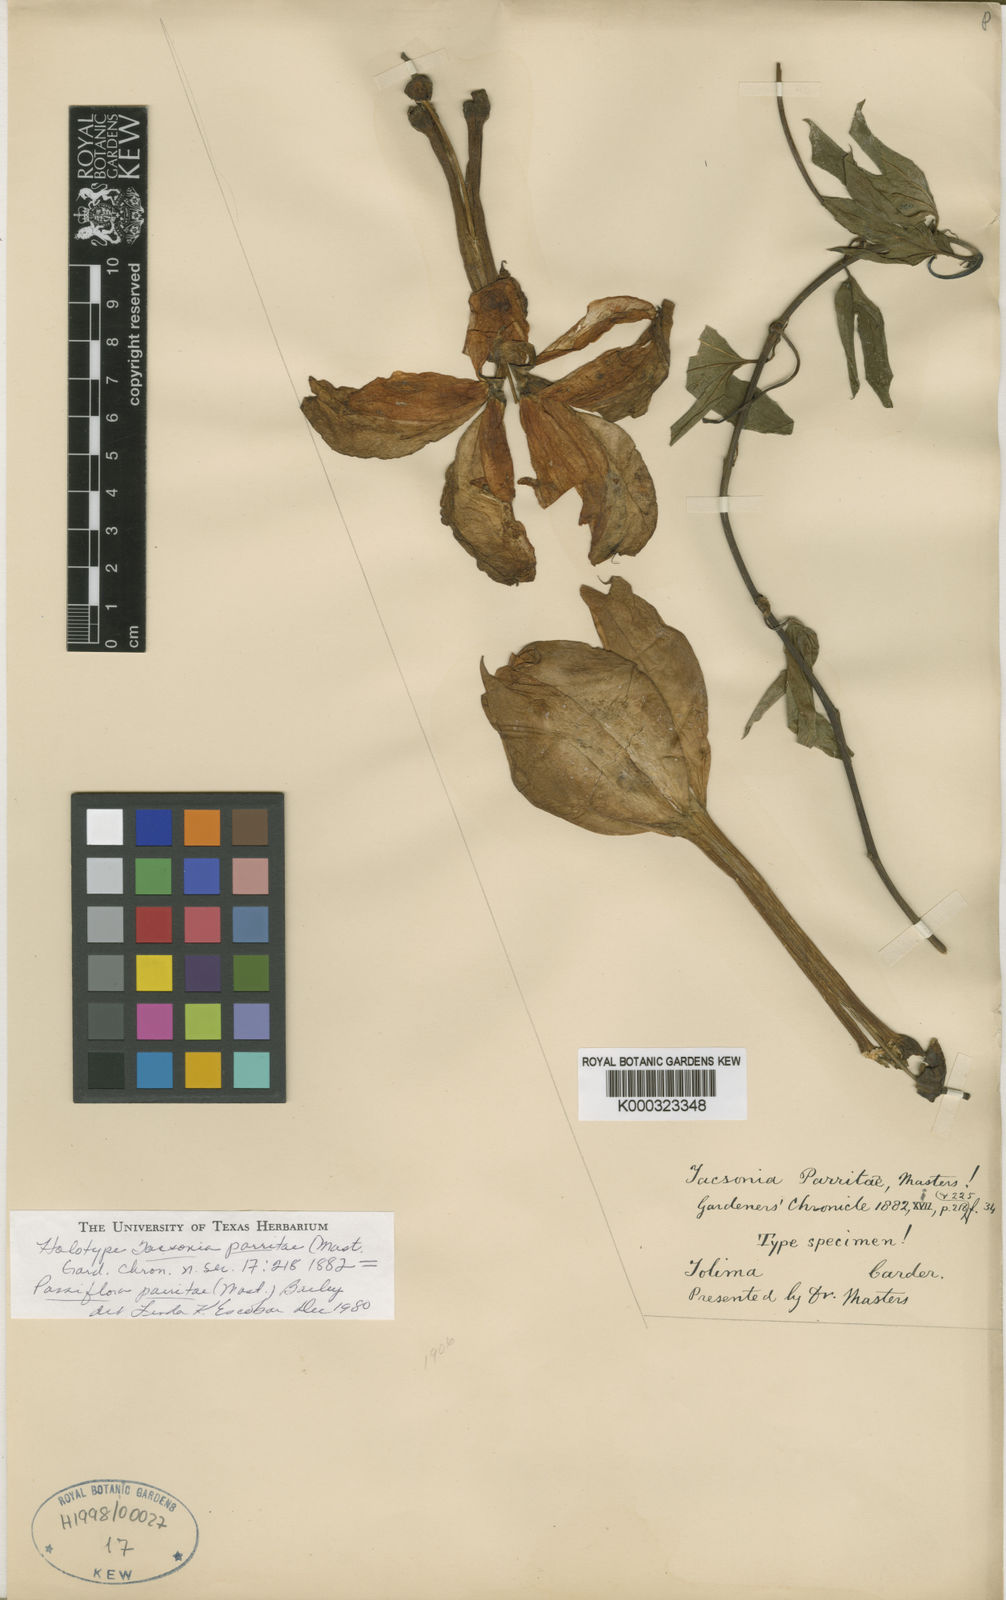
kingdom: Plantae
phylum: Tracheophyta
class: Magnoliopsida
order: Malpighiales
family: Passifloraceae
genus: Passiflora
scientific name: Passiflora parritae
